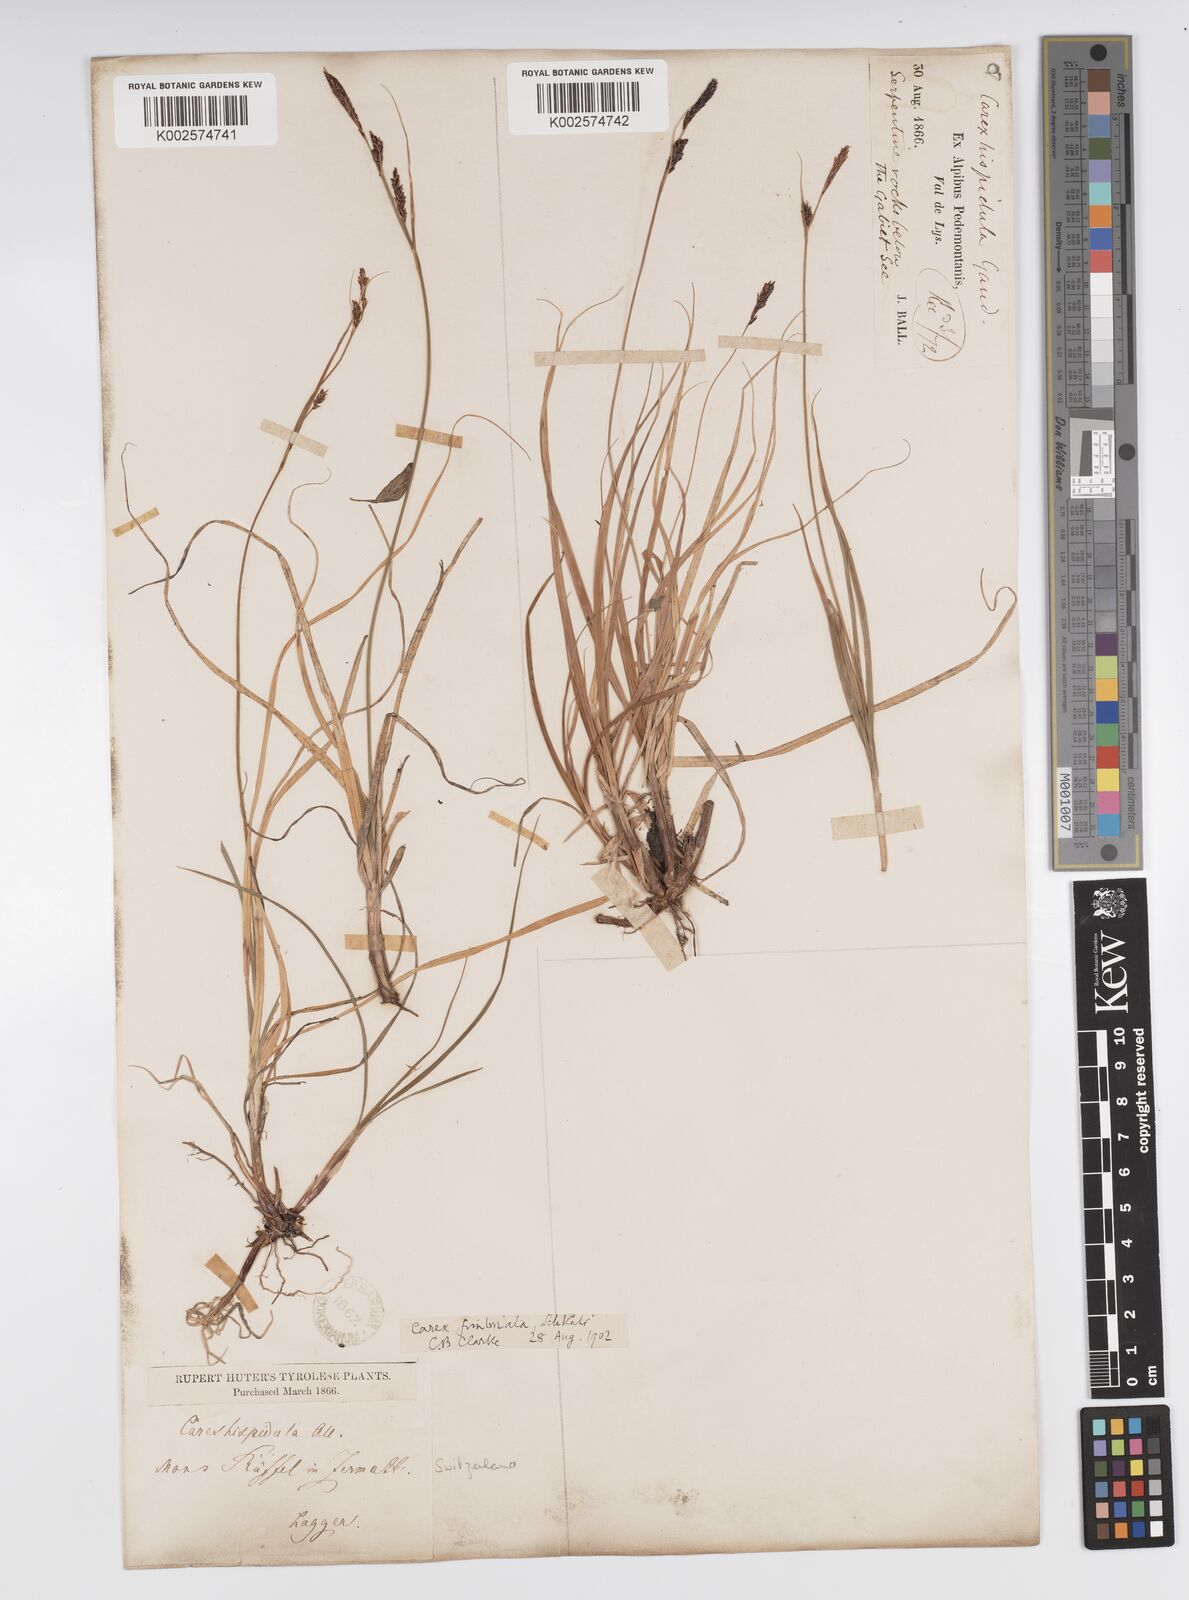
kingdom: Plantae
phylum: Tracheophyta
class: Liliopsida
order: Poales
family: Cyperaceae
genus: Carex
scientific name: Carex fimbriata
